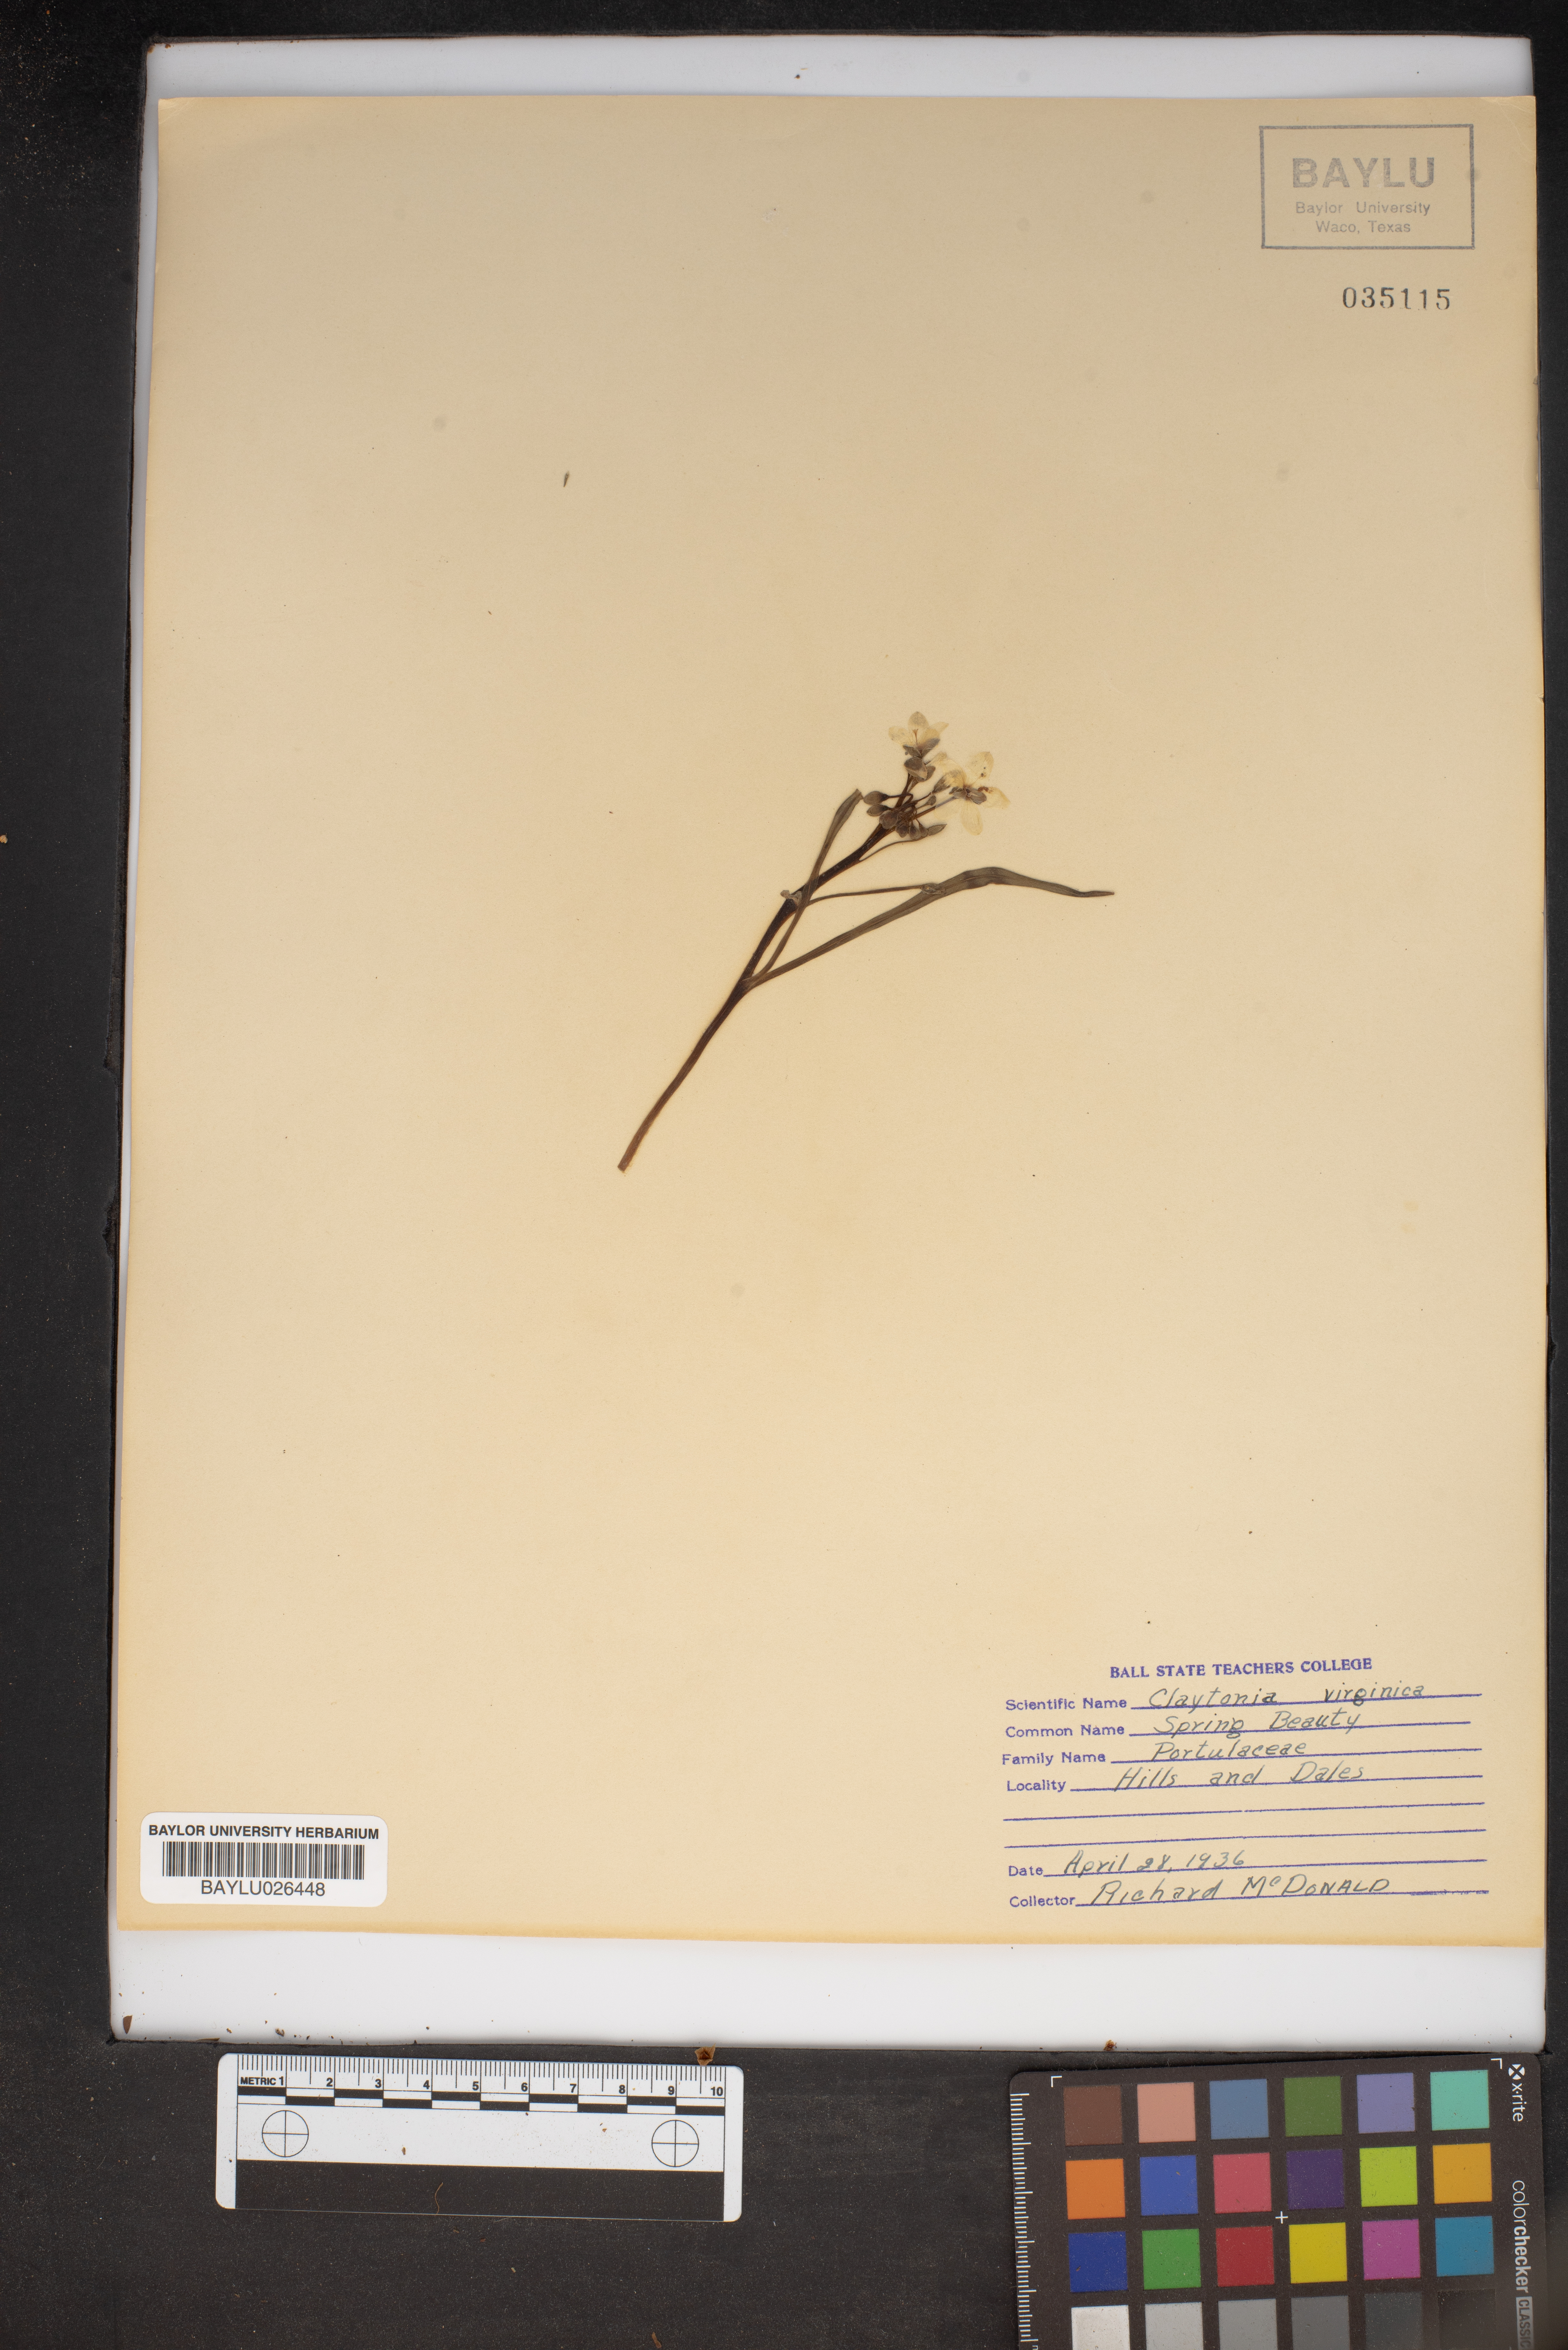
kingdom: Plantae
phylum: Tracheophyta
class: Magnoliopsida
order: Caryophyllales
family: Montiaceae
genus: Claytonia
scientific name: Claytonia virginica
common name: Virginia springbeauty
